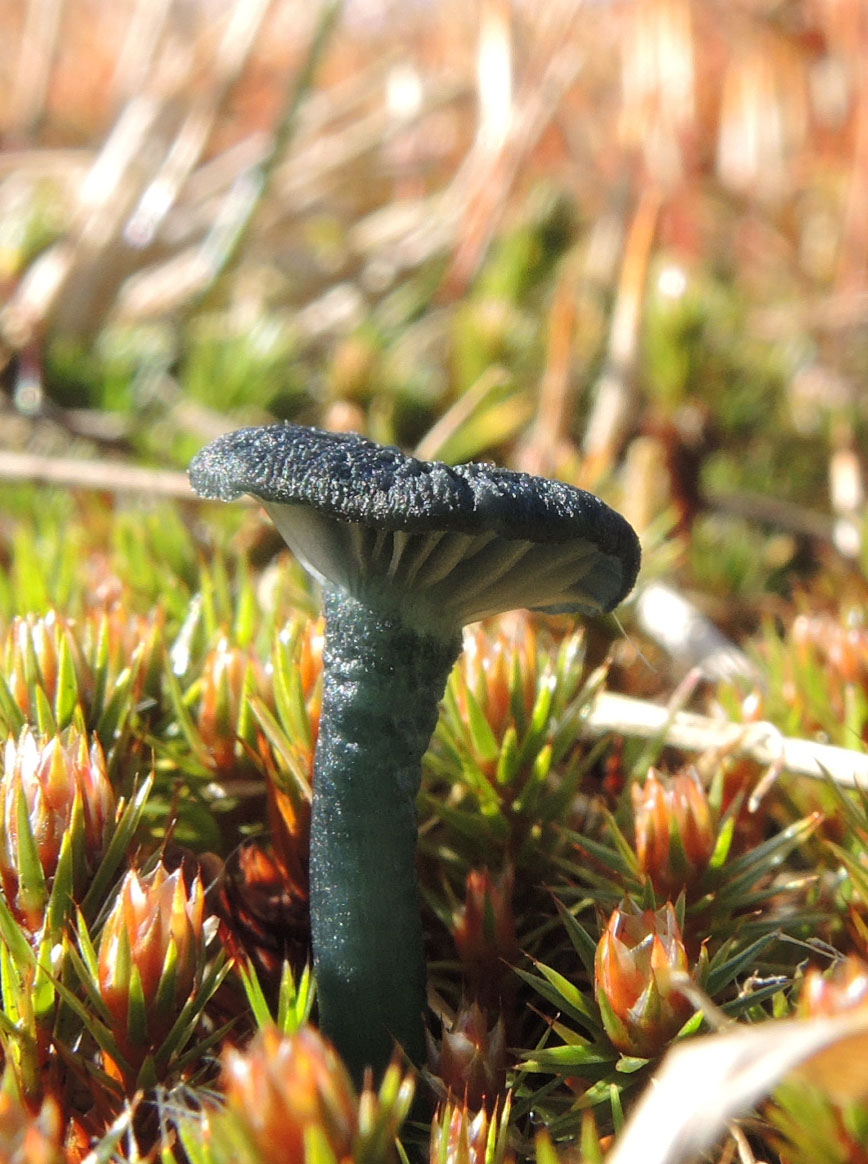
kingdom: Fungi
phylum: Basidiomycota
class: Agaricomycetes
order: Agaricales
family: Hygrophoraceae
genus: Arrhenia
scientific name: Arrhenia chlorocyanea
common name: blågrøn fontænehat
